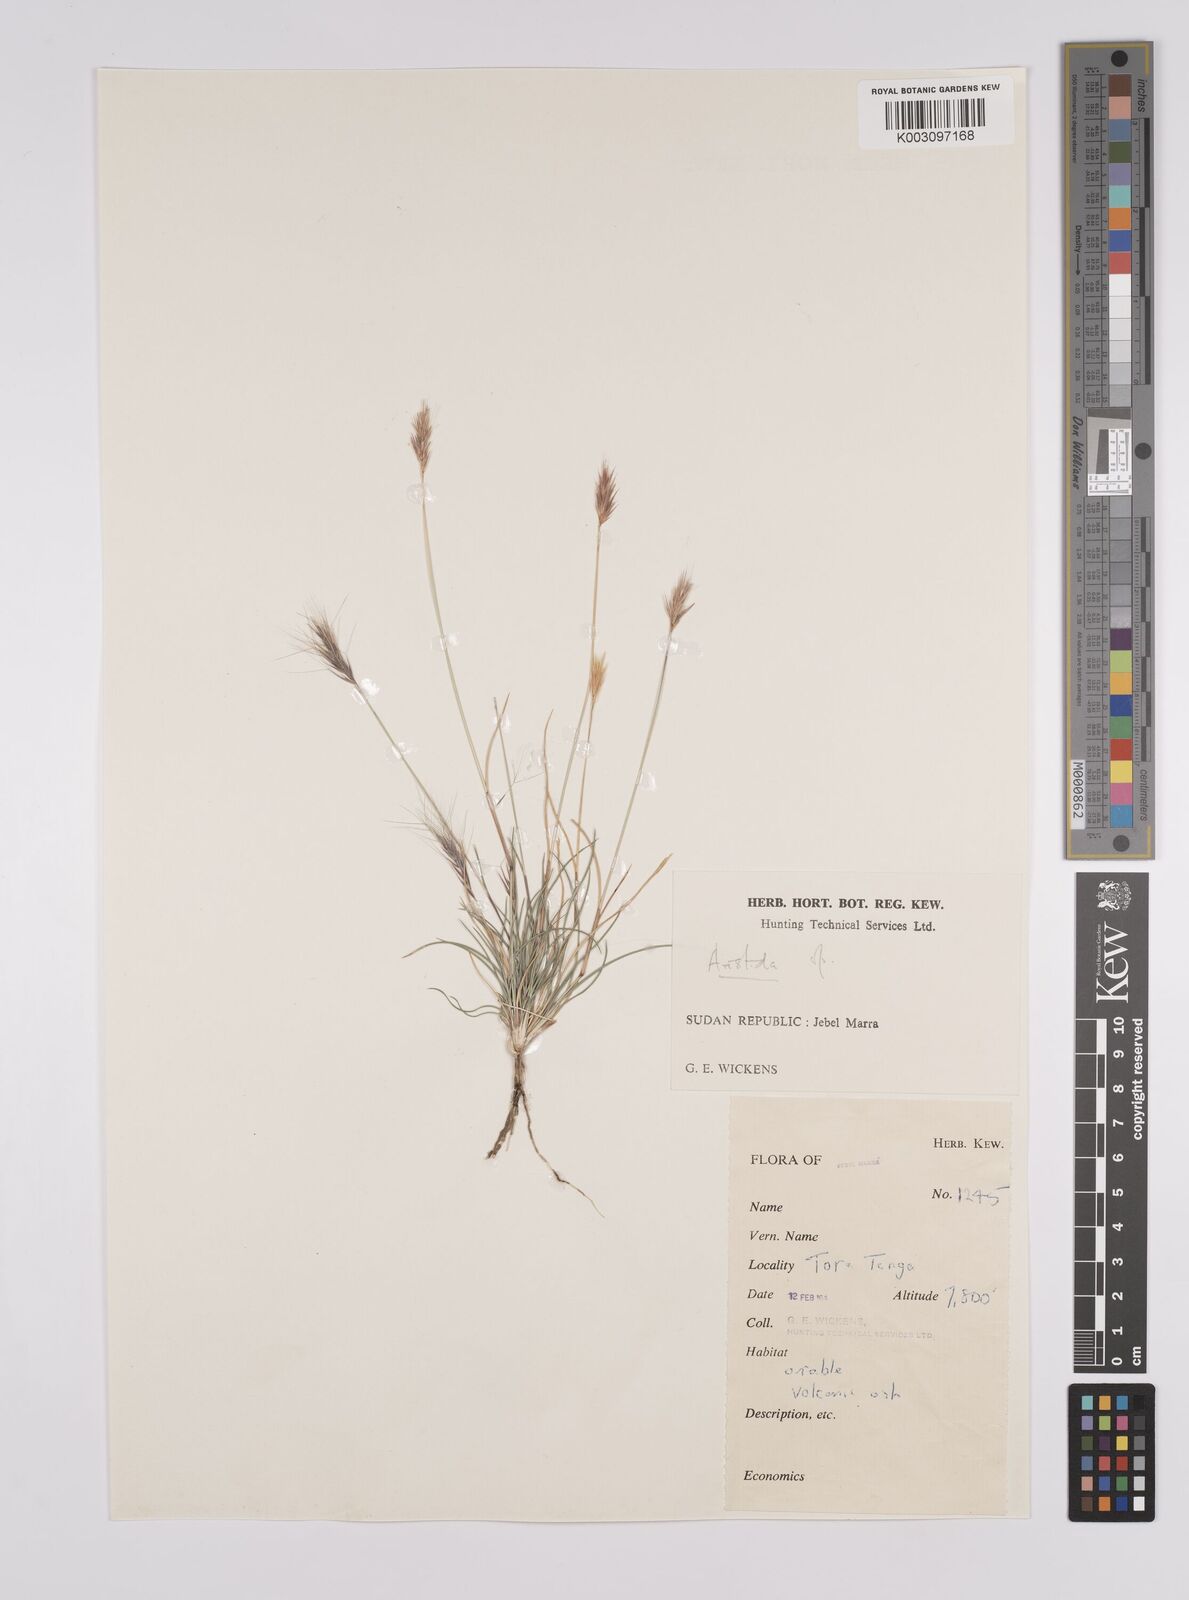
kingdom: Plantae
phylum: Tracheophyta
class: Liliopsida
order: Poales
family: Poaceae
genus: Aristida
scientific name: Aristida congesta
